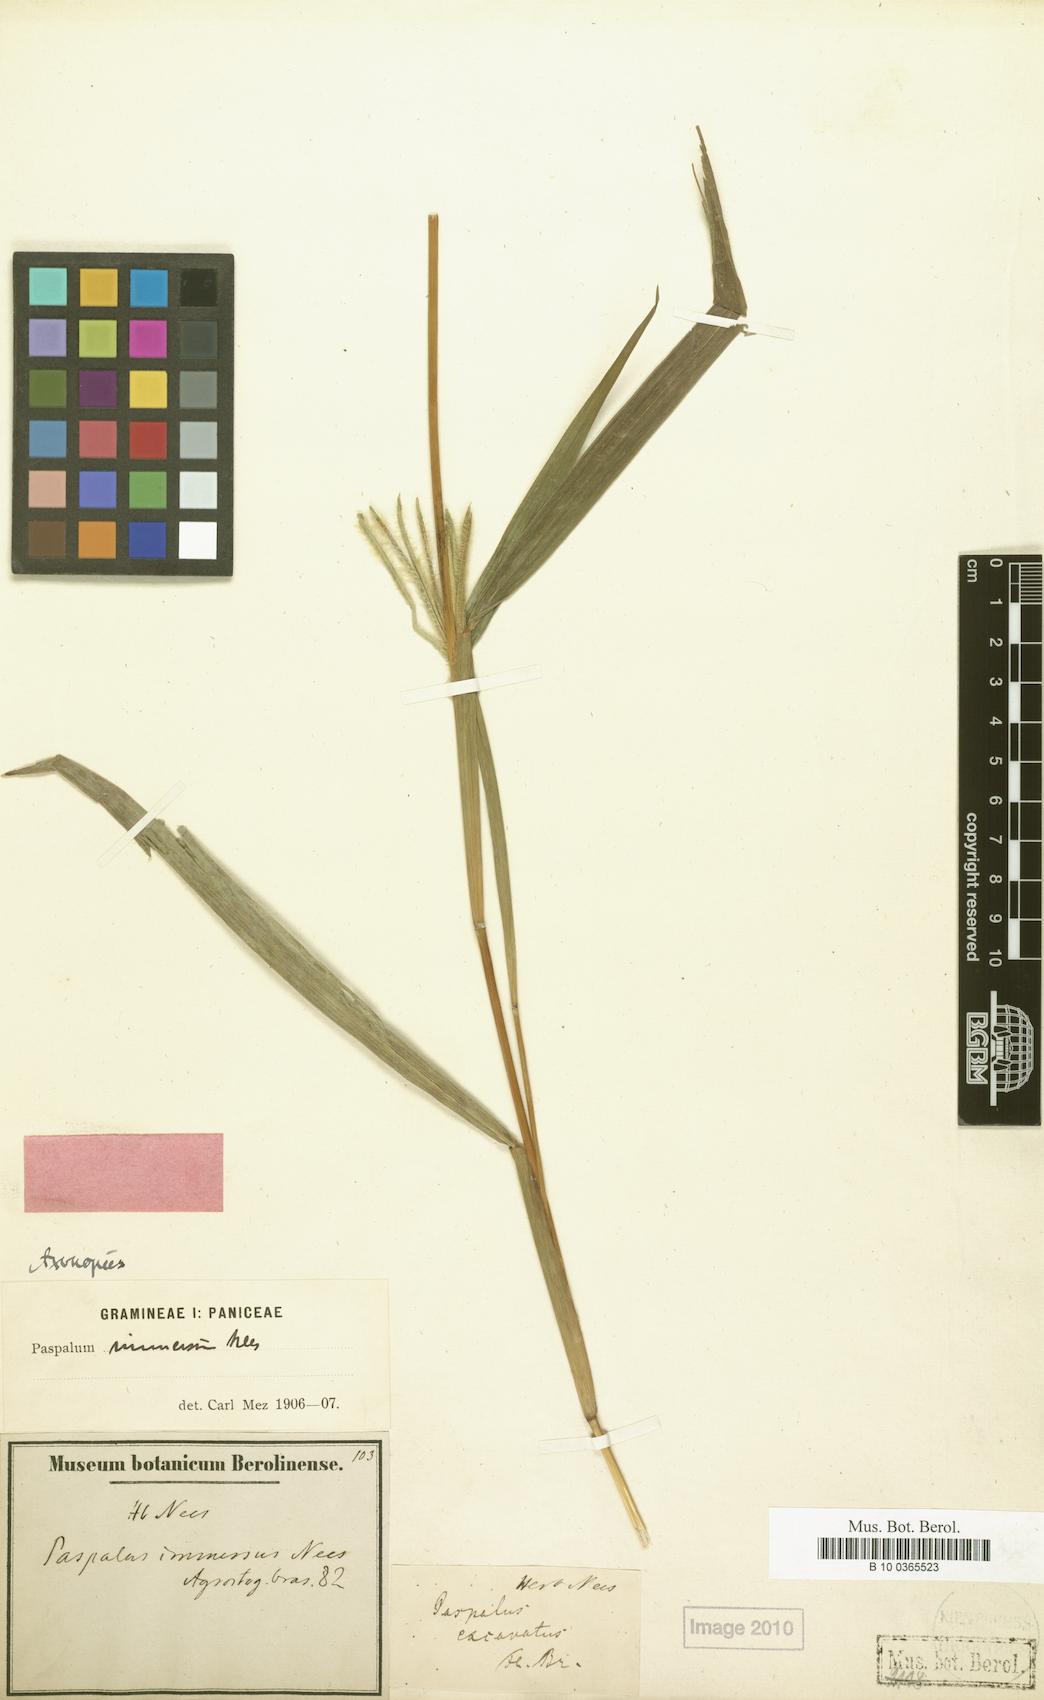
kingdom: Plantae
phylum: Tracheophyta
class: Liliopsida
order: Poales
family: Poaceae
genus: Axonopus
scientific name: Axonopus chrysoblepharis
